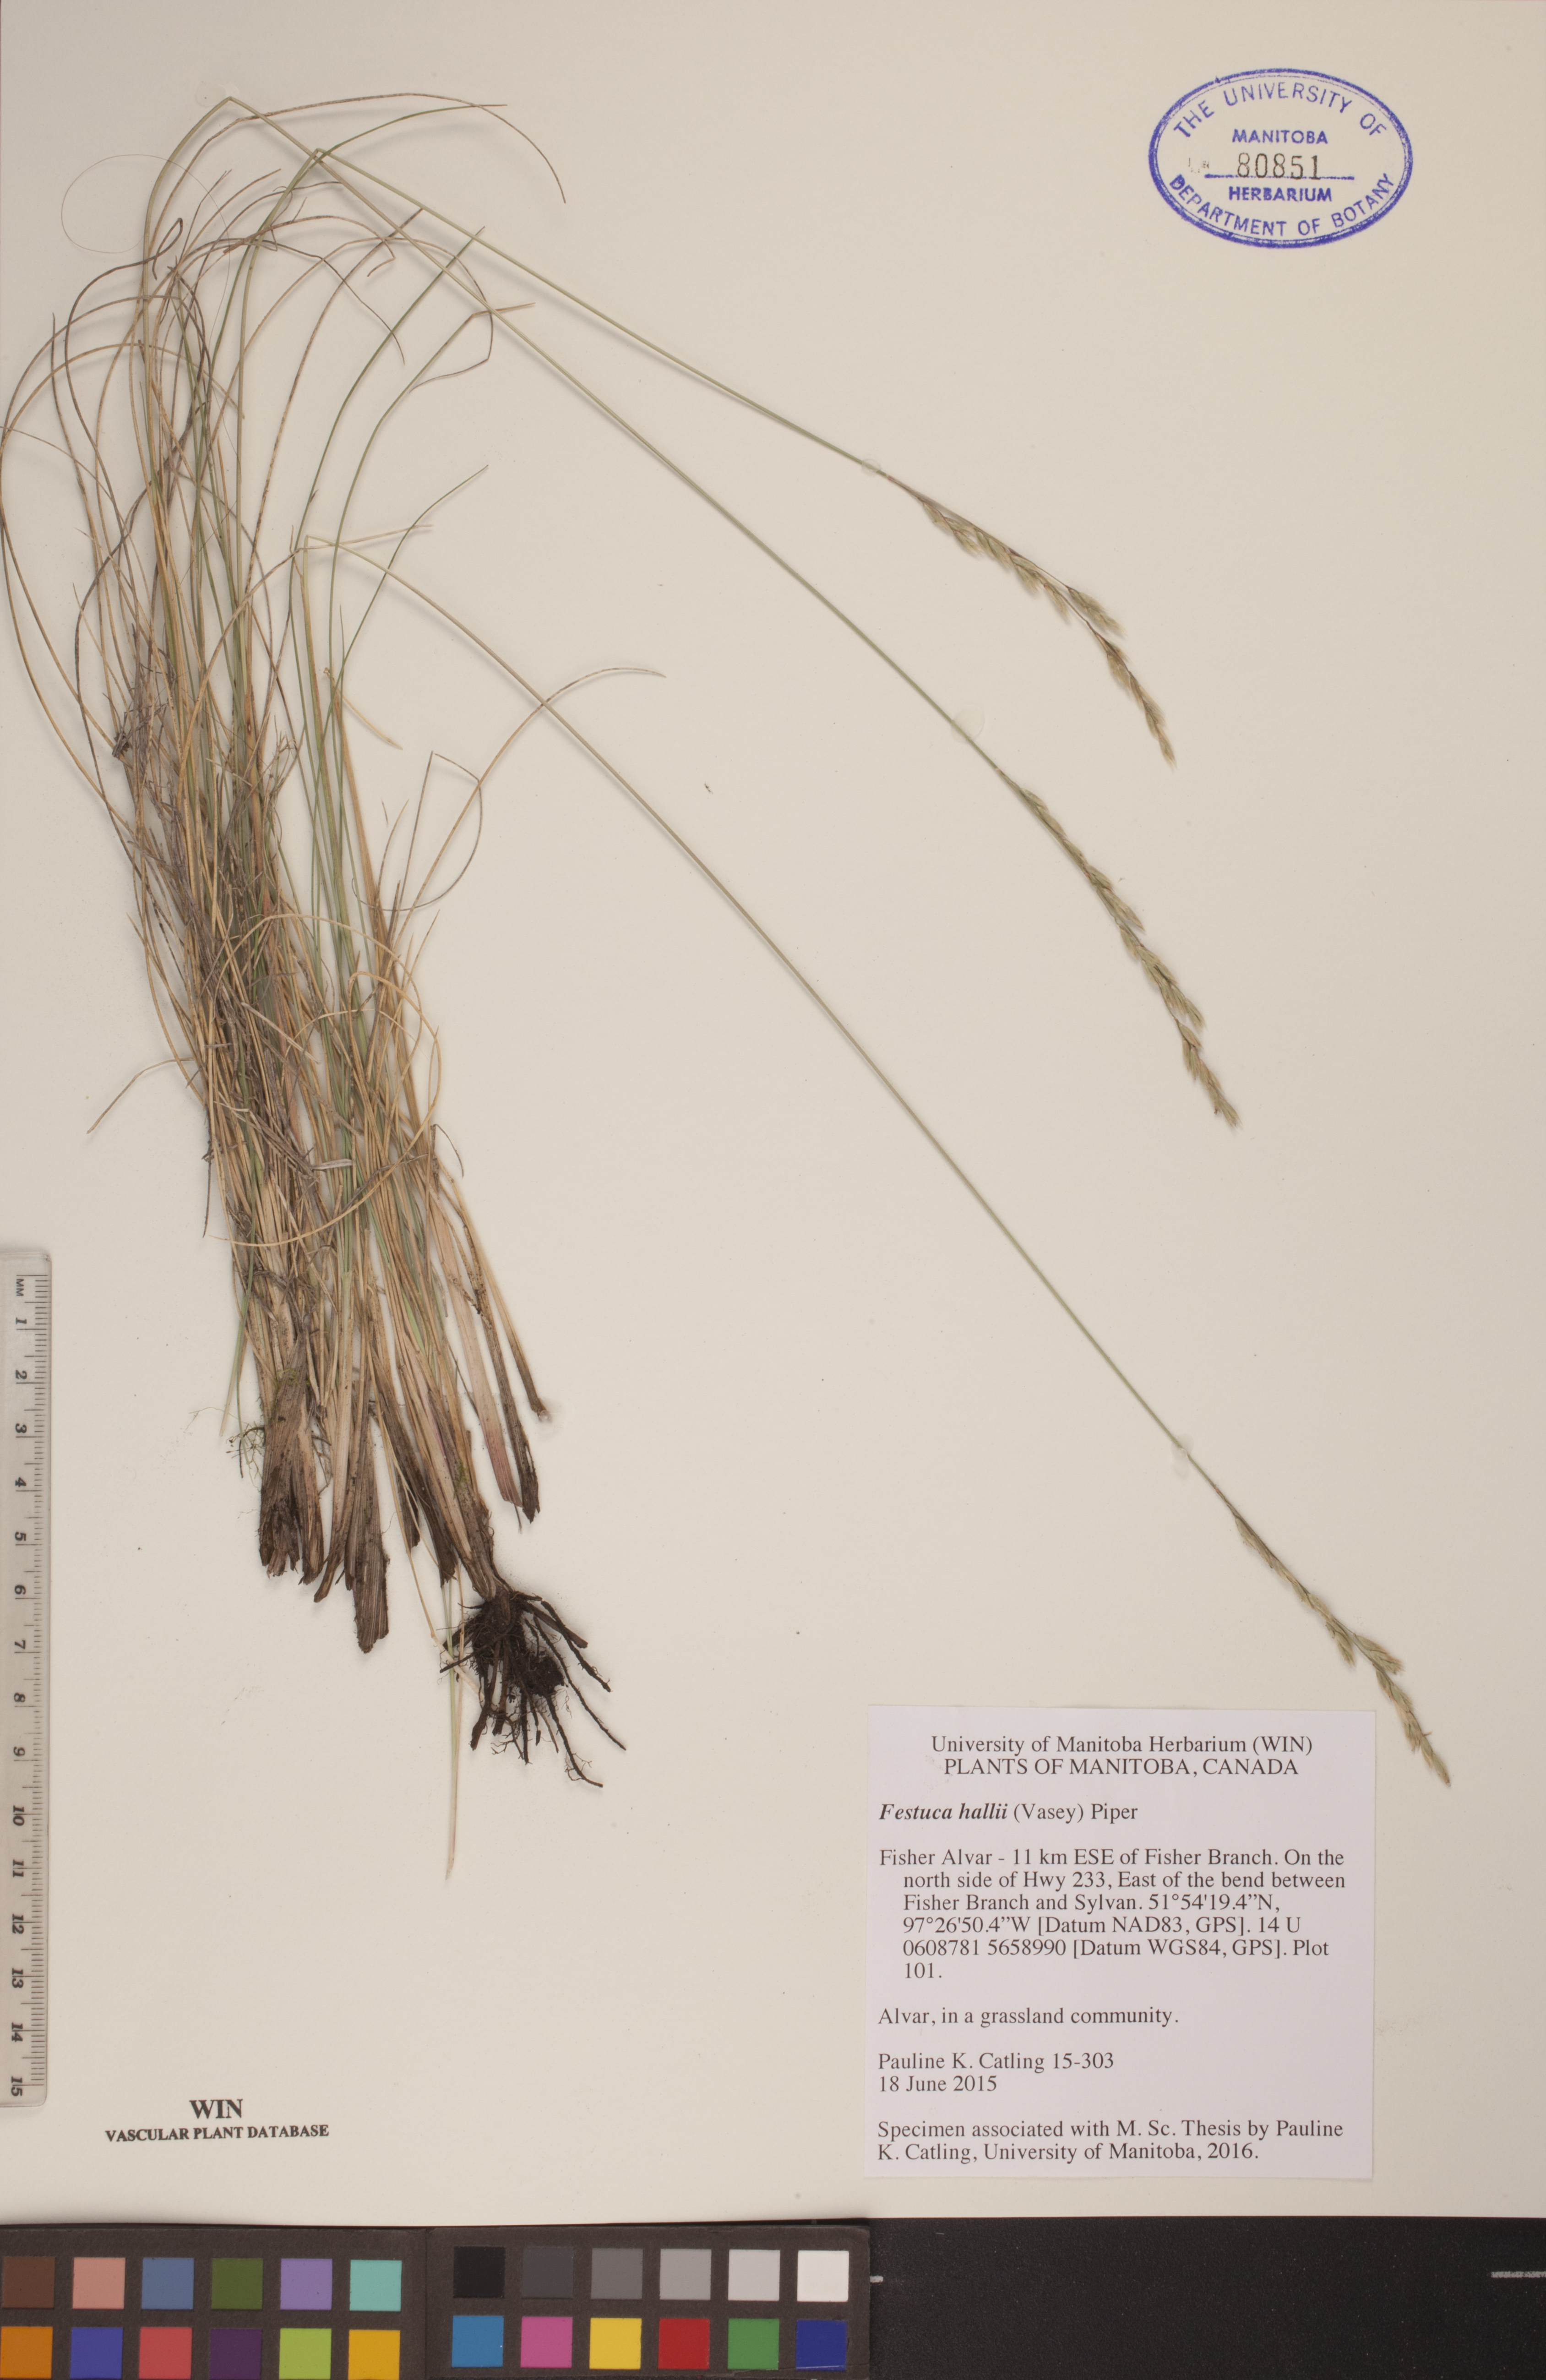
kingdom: Plantae
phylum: Tracheophyta
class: Liliopsida
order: Poales
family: Poaceae
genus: Festuca
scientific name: Festuca hallii
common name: Hall's fescue
